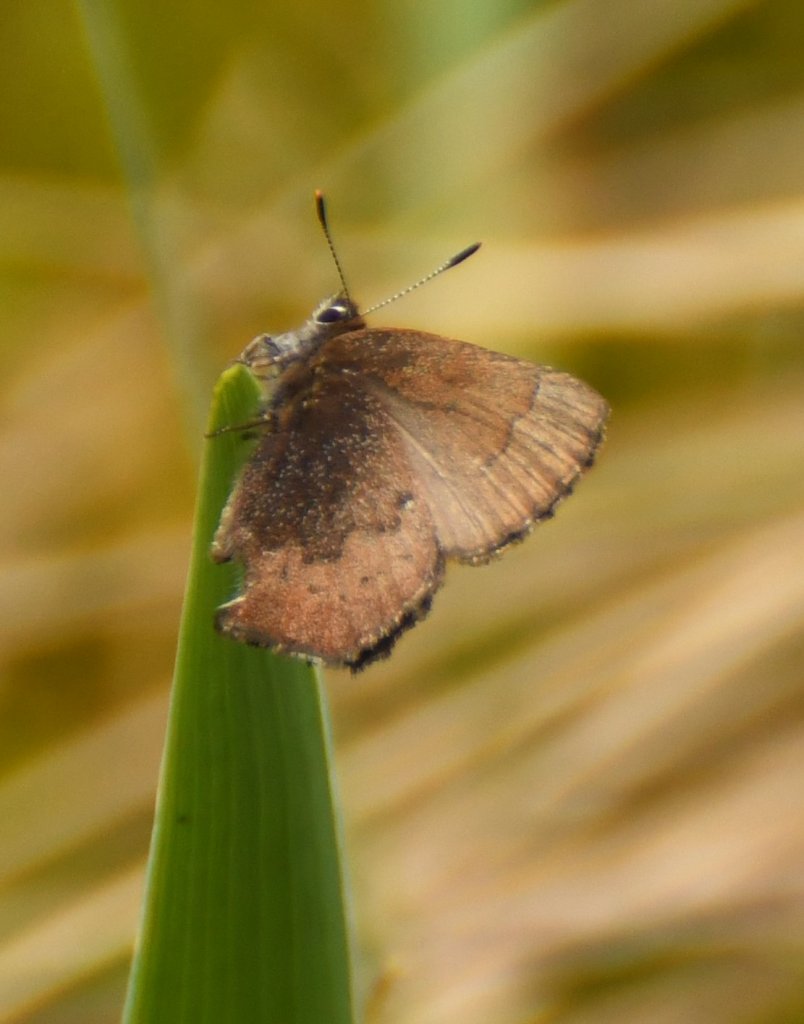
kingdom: Animalia
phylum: Arthropoda
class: Insecta
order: Lepidoptera
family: Lycaenidae
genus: Incisalia
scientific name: Incisalia irioides
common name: Brown Elfin
